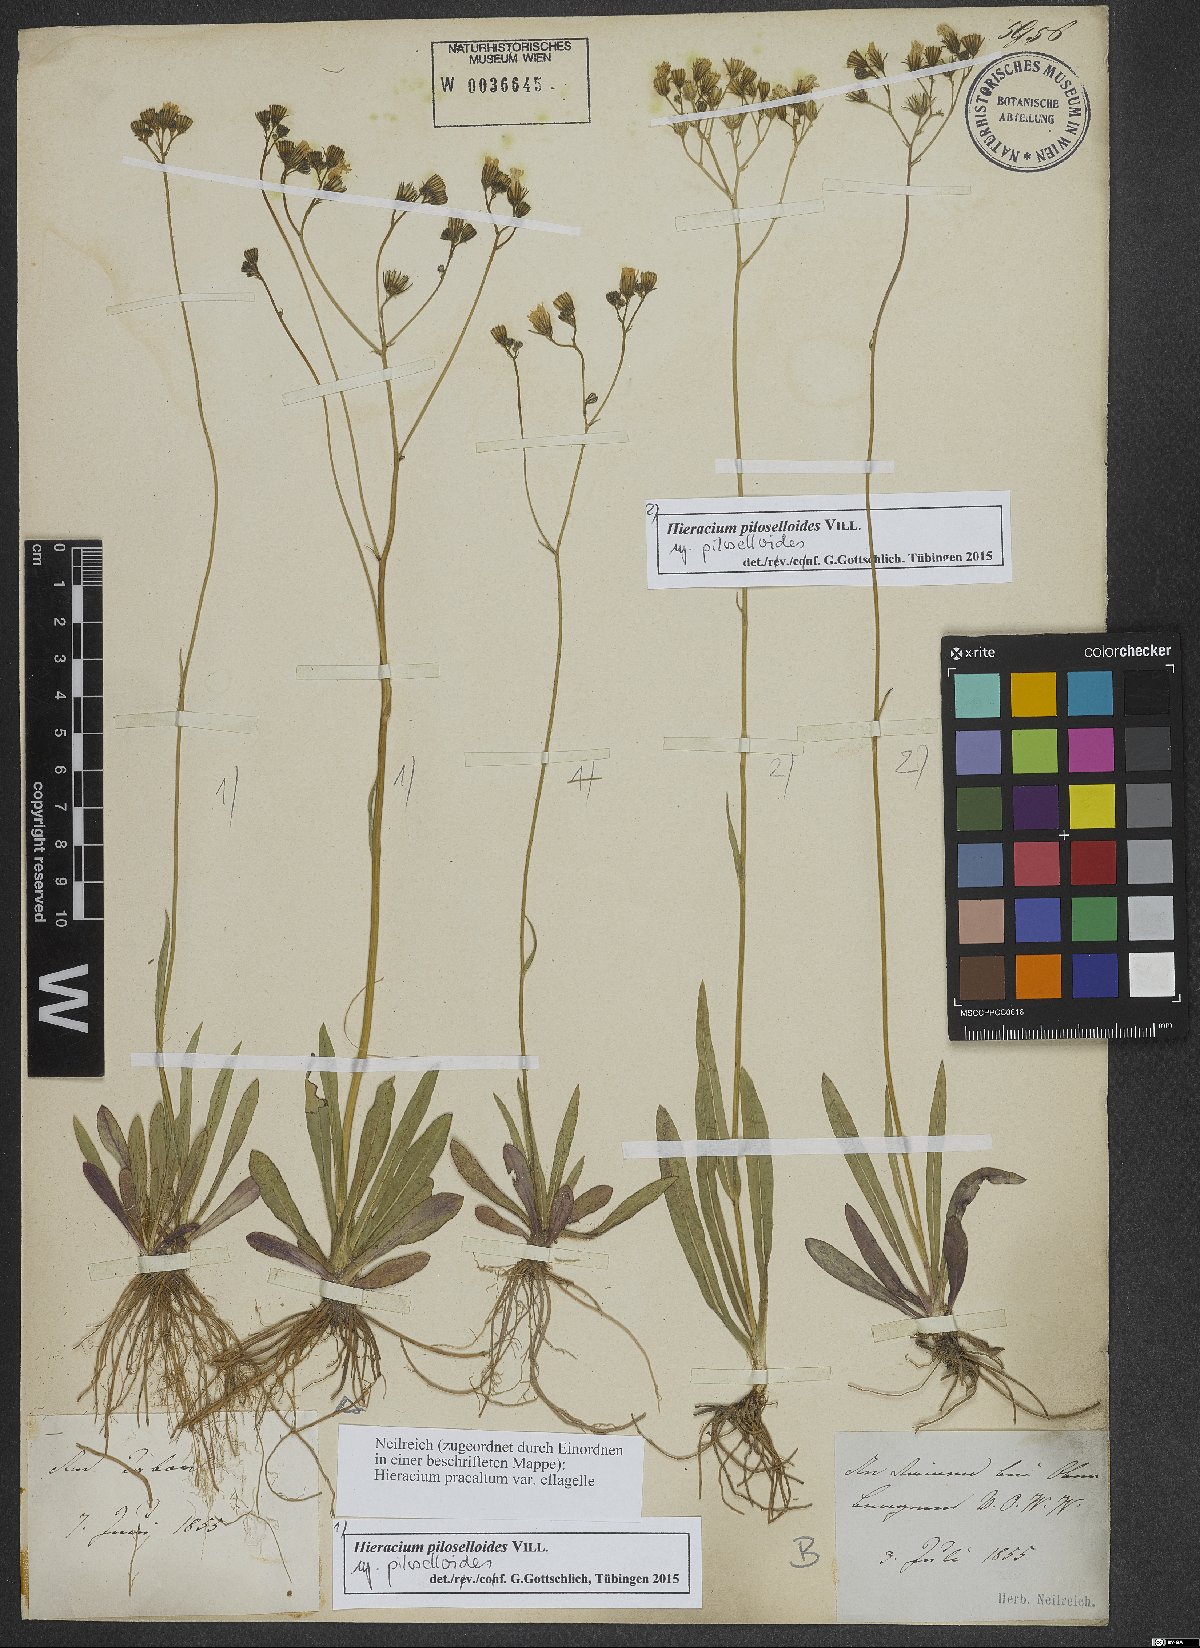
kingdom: Plantae
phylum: Tracheophyta
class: Magnoliopsida
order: Asterales
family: Asteraceae
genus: Pilosella
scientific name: Pilosella piloselloides
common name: Glaucous king-devil
